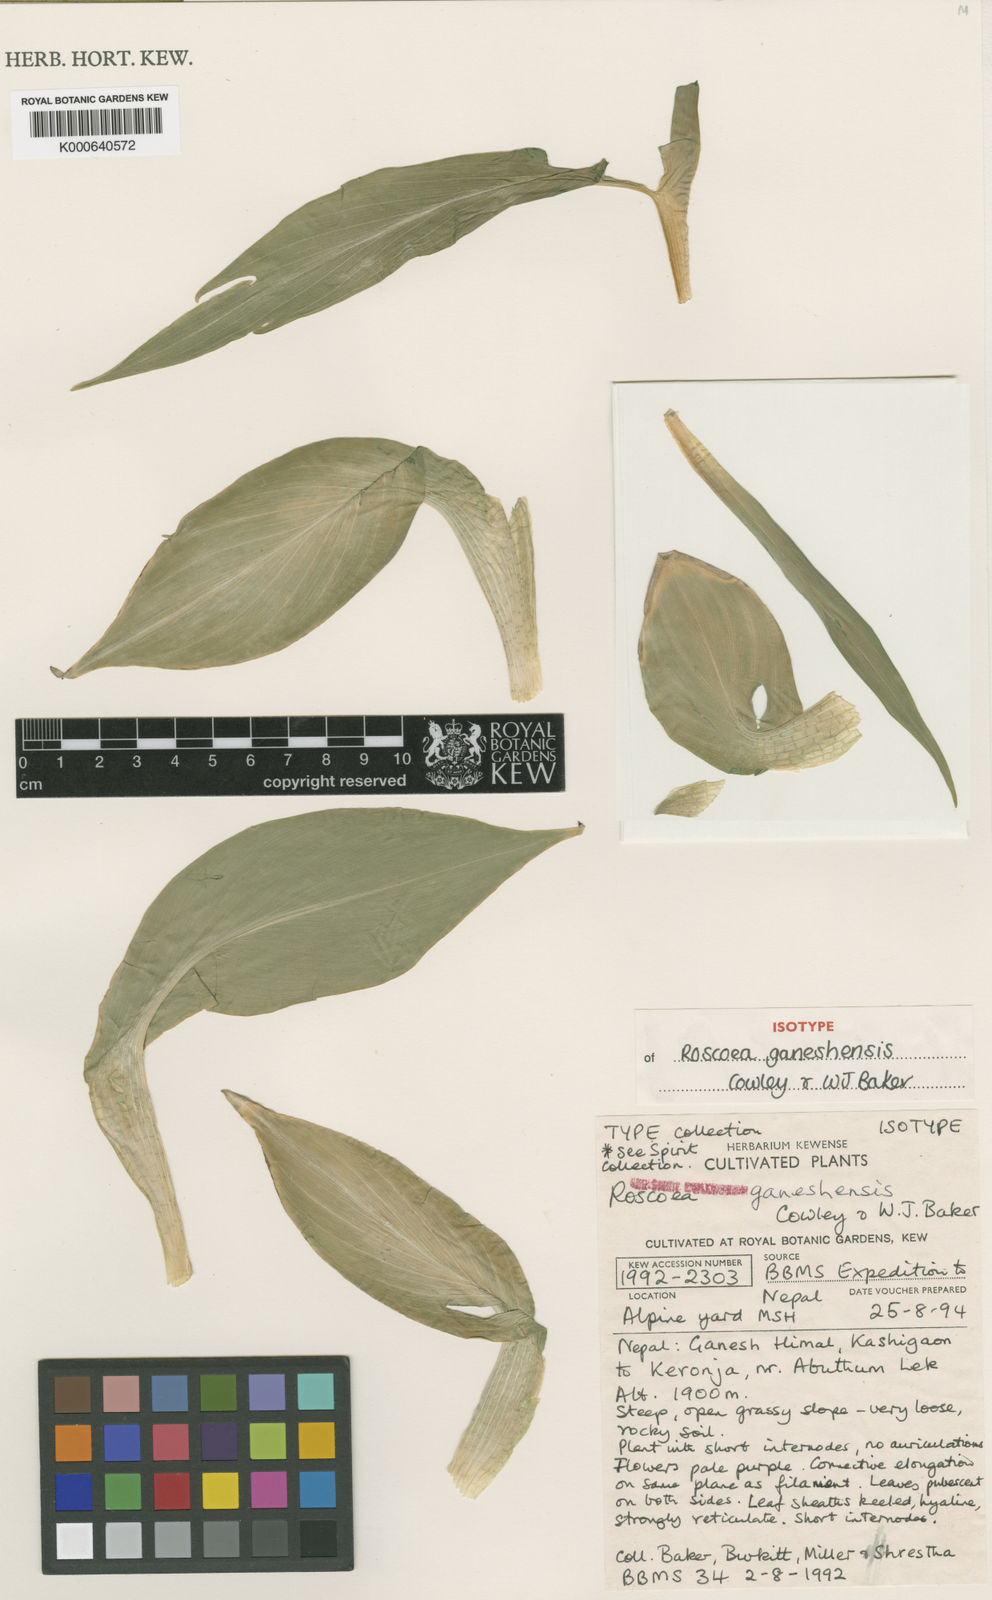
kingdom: Plantae
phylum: Tracheophyta
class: Liliopsida
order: Zingiberales
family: Zingiberaceae
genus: Roscoea
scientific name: Roscoea ganeshensis
